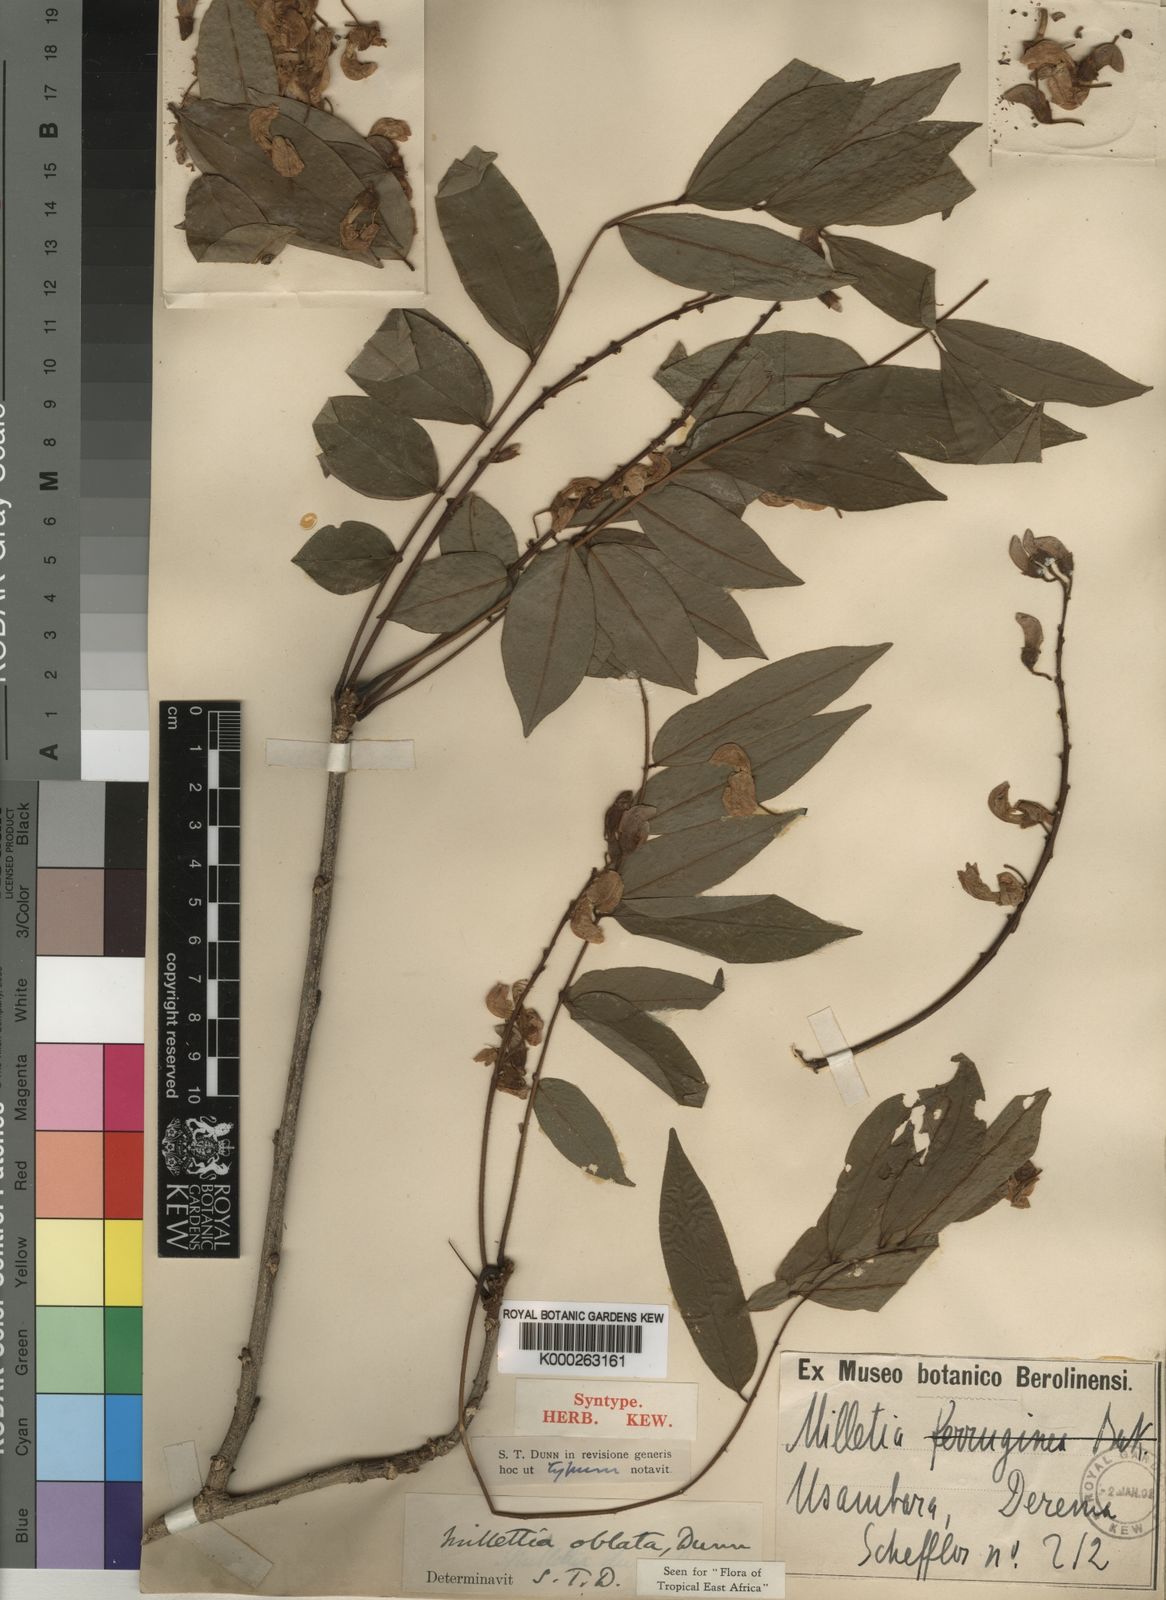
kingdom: Plantae
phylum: Tracheophyta
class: Magnoliopsida
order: Fabales
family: Fabaceae
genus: Millettia
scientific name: Millettia oblata
